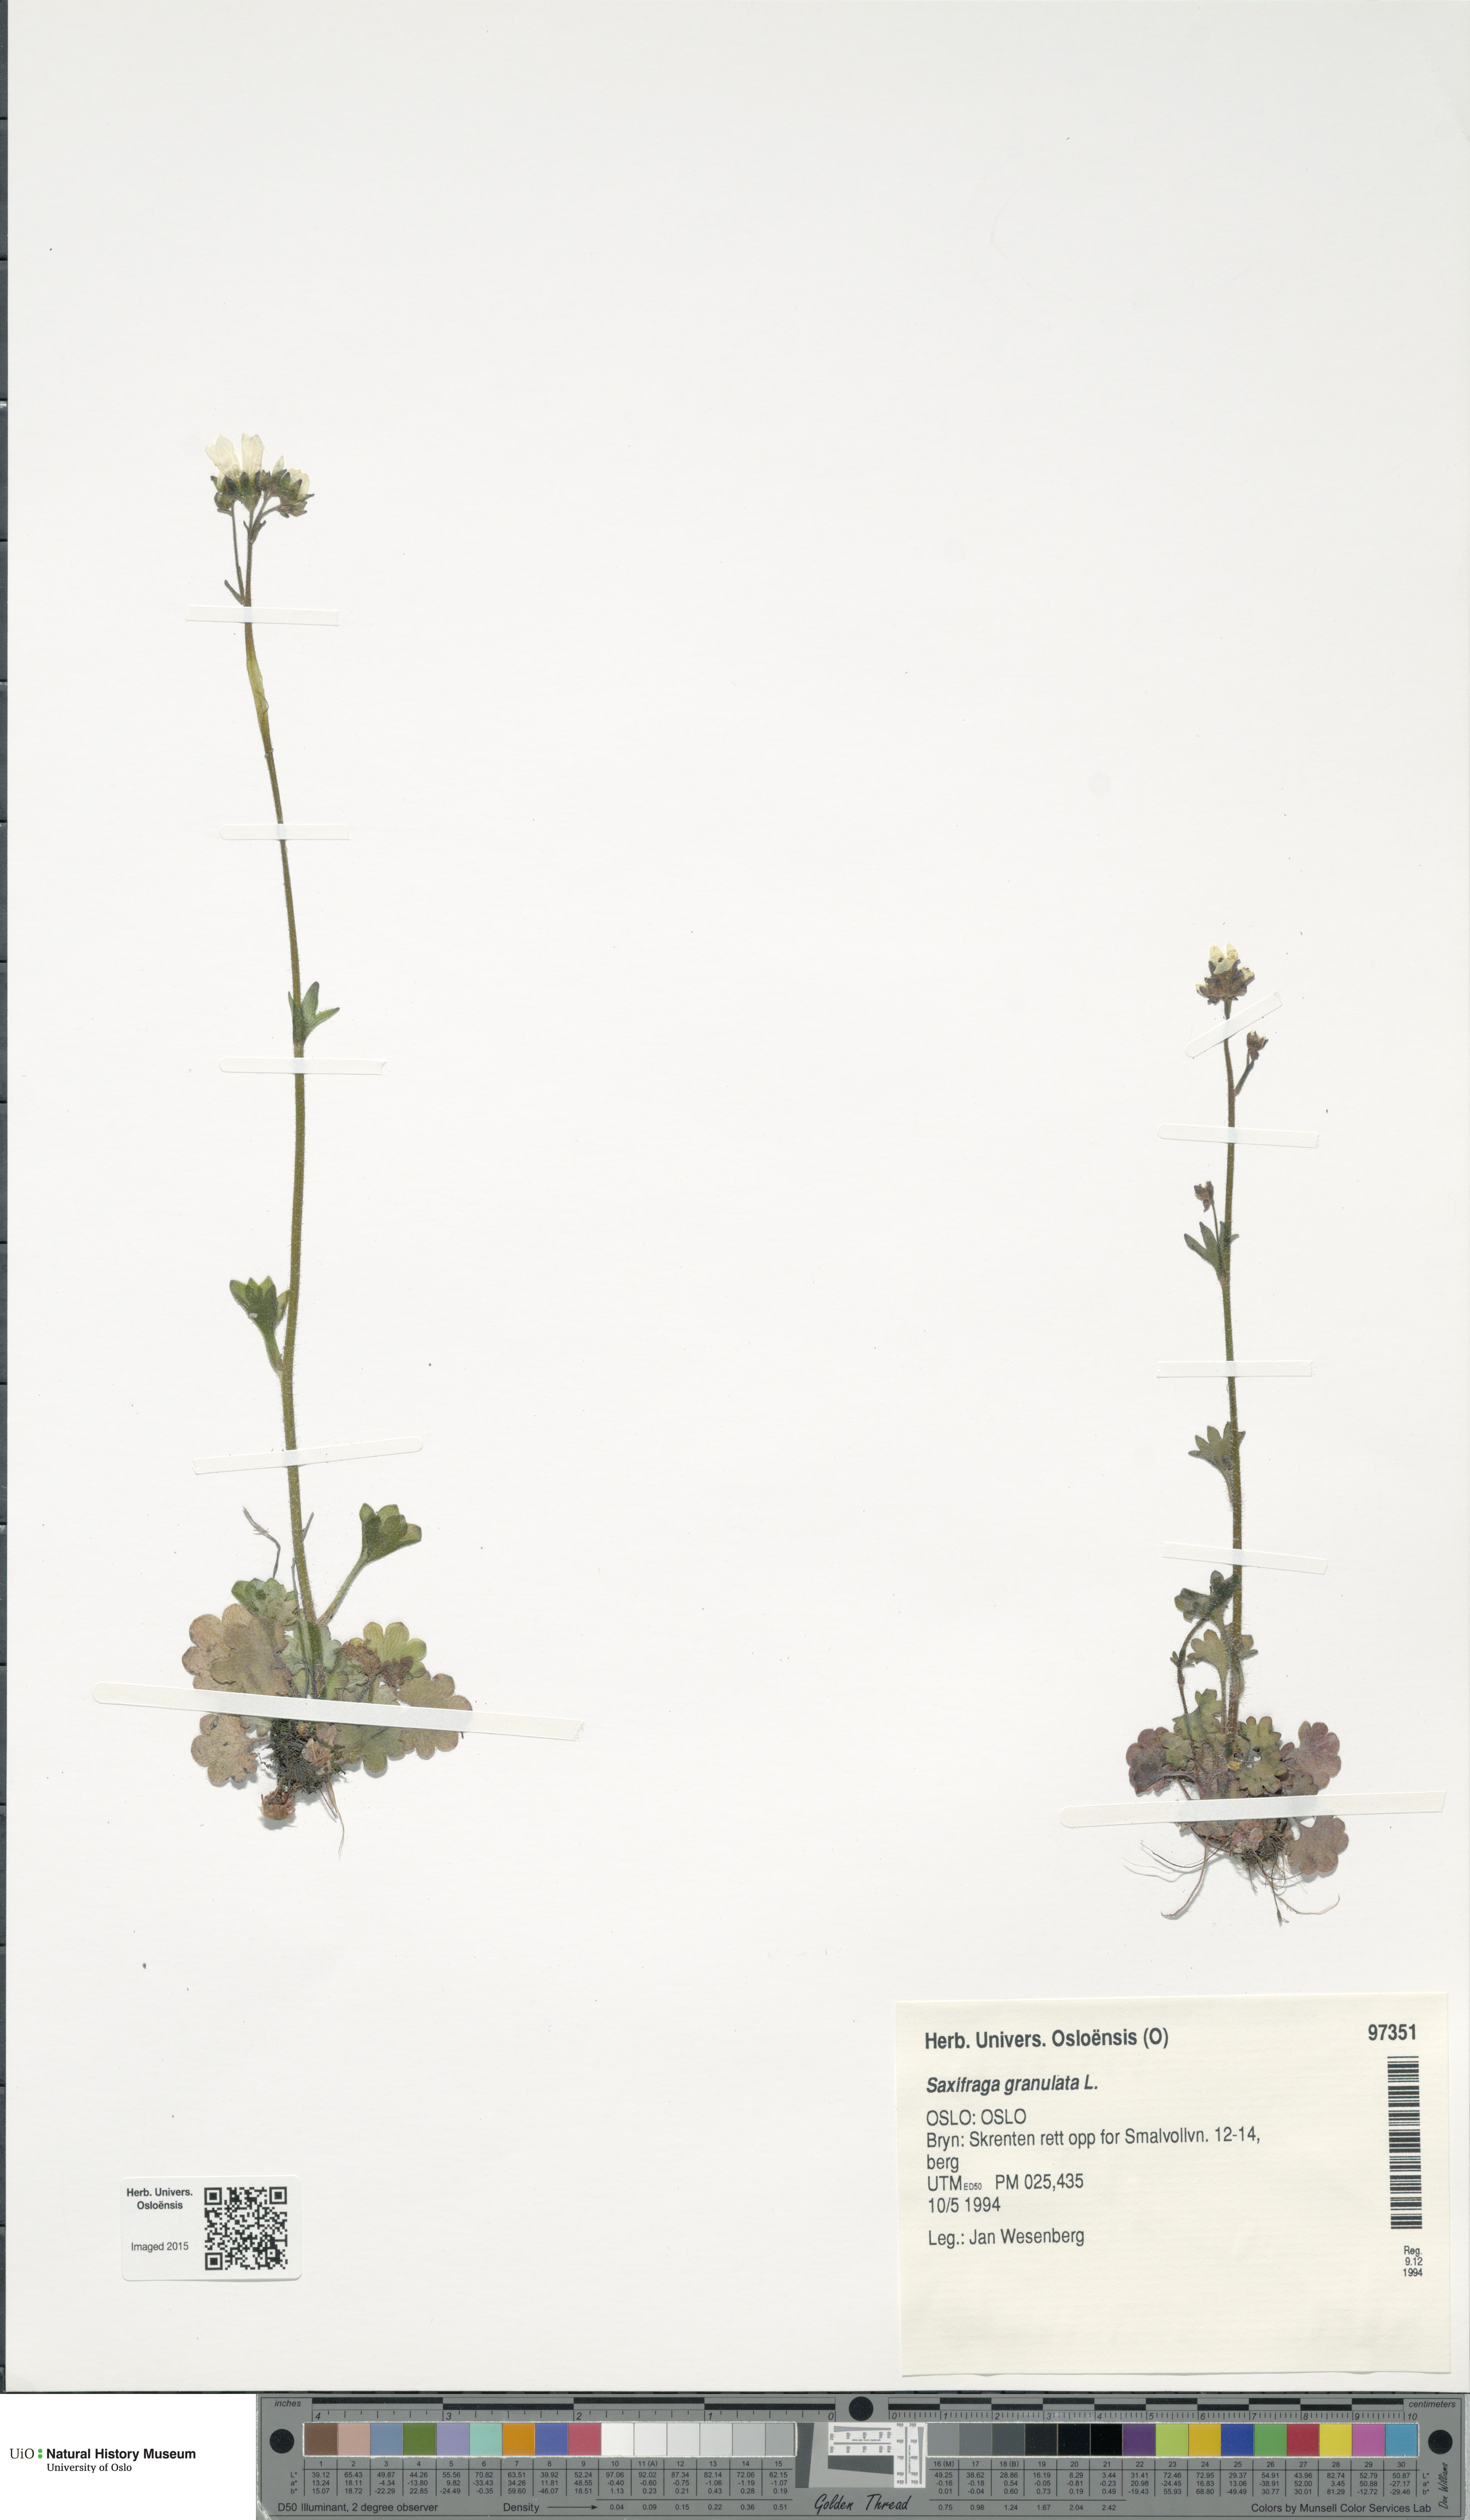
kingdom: Plantae
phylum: Tracheophyta
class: Magnoliopsida
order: Saxifragales
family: Saxifragaceae
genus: Saxifraga
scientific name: Saxifraga granulata
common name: Meadow saxifrage
